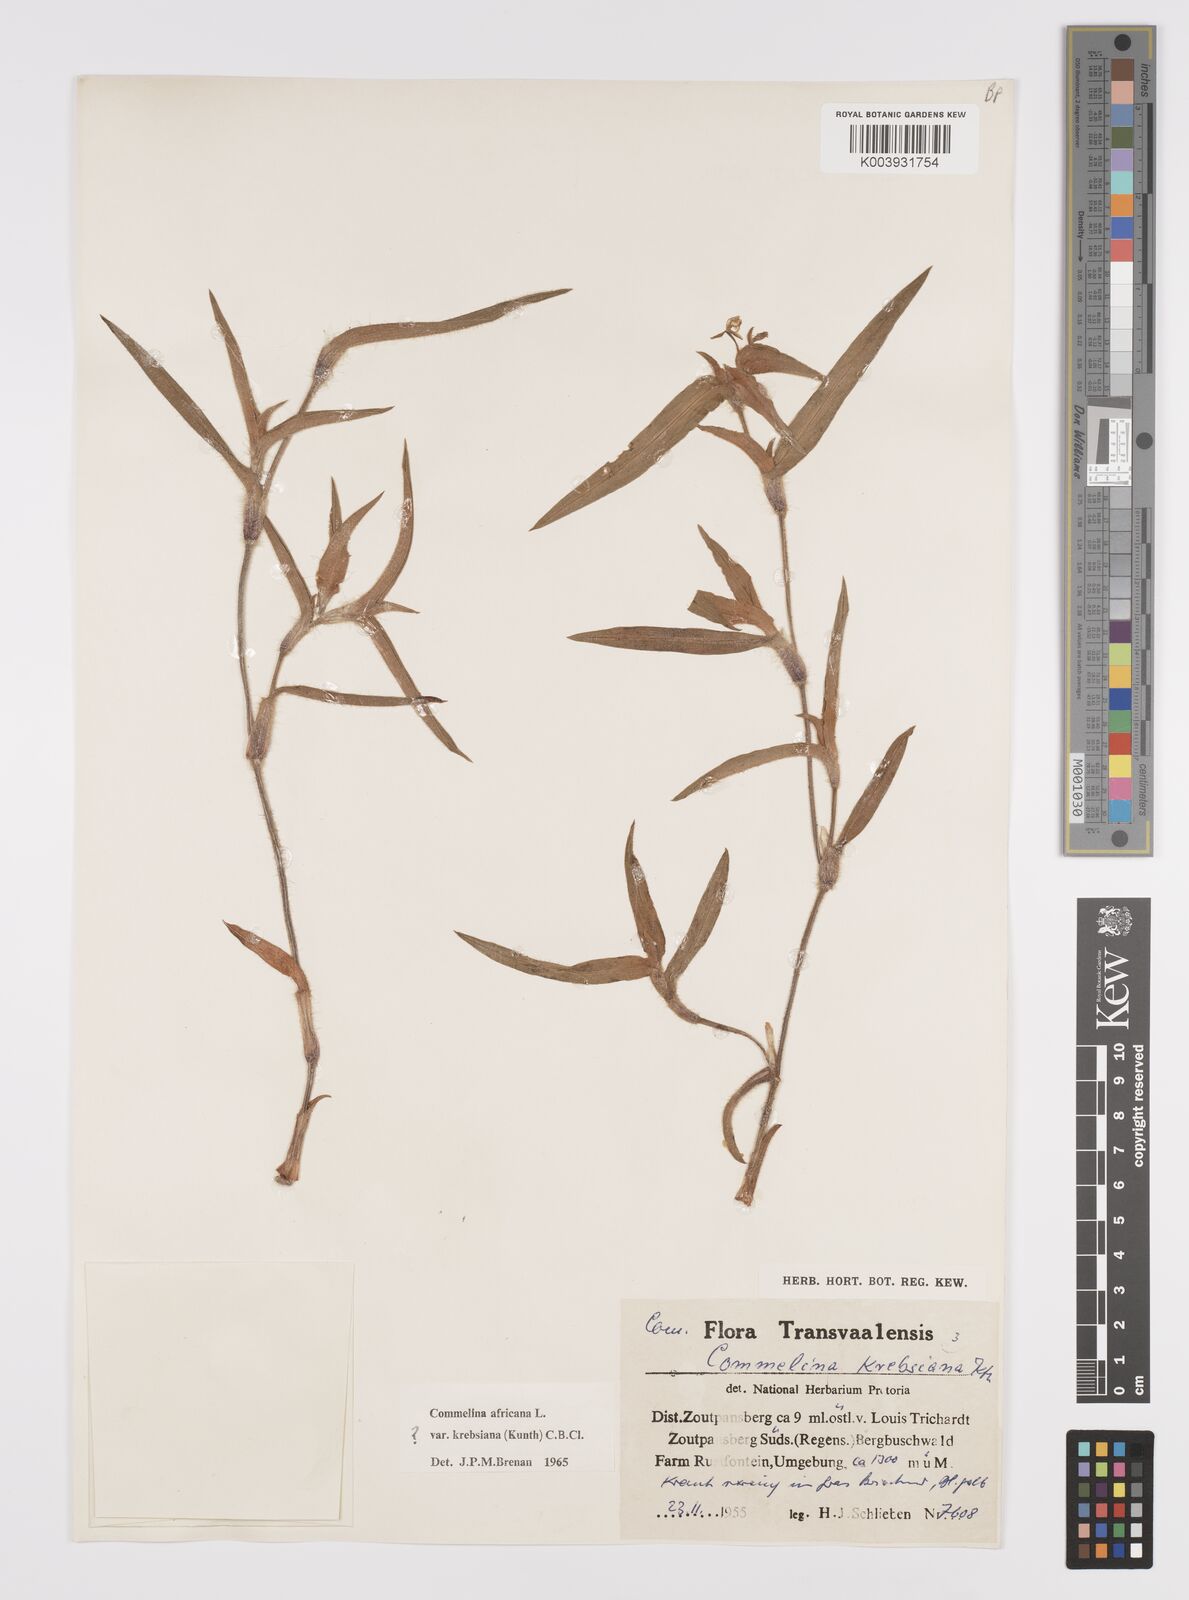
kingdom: Plantae
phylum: Tracheophyta
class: Liliopsida
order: Commelinales
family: Commelinaceae
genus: Commelina
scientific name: Commelina africana
